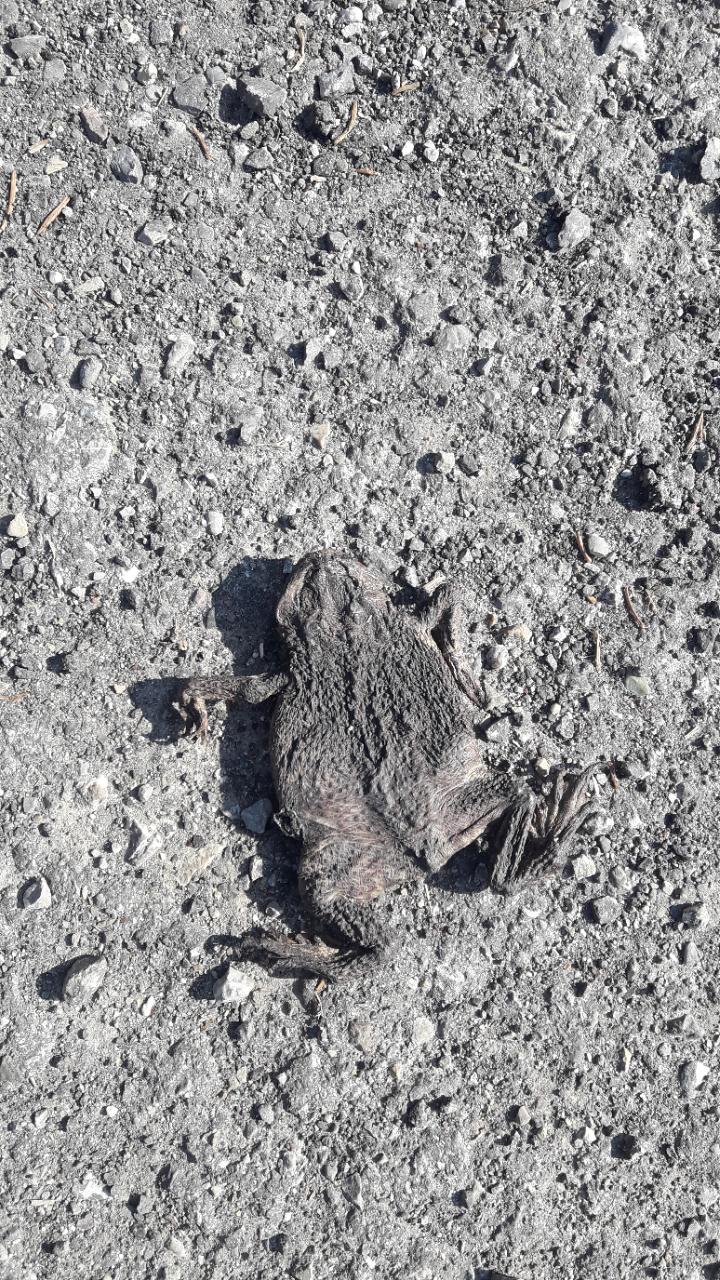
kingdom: Animalia
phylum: Chordata
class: Amphibia
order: Anura
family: Bufonidae
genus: Bufo
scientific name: Bufo bufo
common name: Common toad
